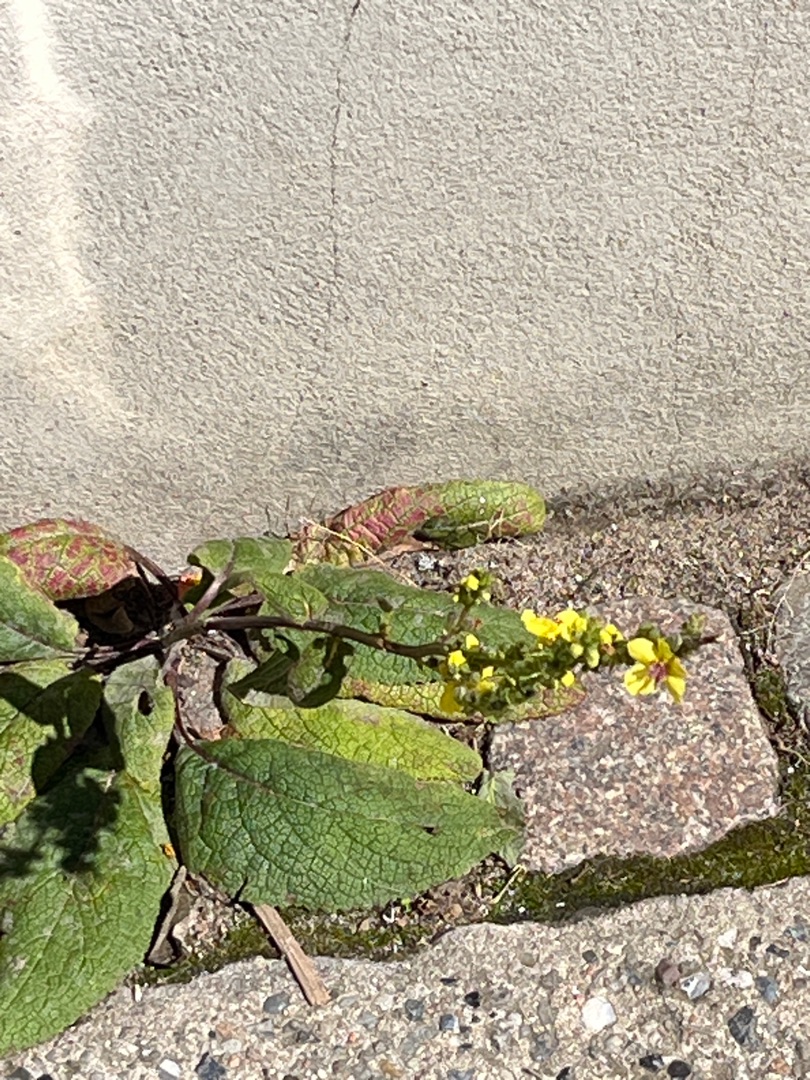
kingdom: Plantae
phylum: Tracheophyta
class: Magnoliopsida
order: Lamiales
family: Scrophulariaceae
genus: Verbascum
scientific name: Verbascum nigrum
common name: Mørk kongelys
